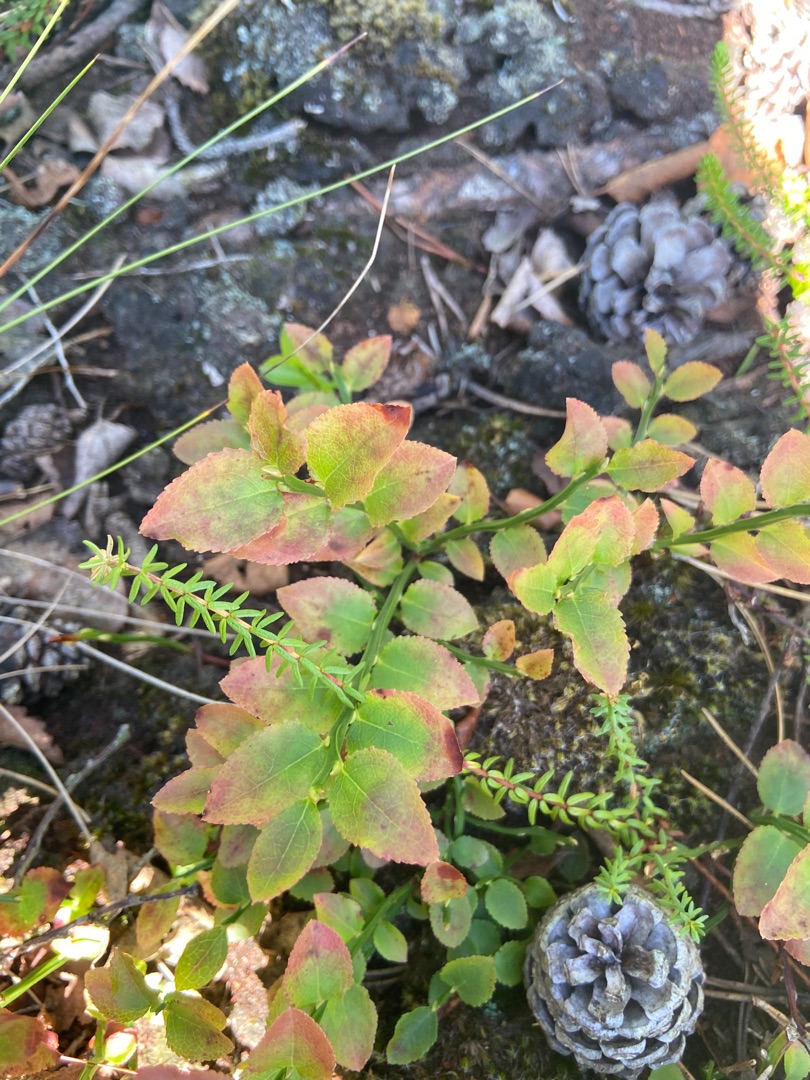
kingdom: Plantae
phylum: Tracheophyta
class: Magnoliopsida
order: Ericales
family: Ericaceae
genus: Vaccinium
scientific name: Vaccinium myrtillus
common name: Blåbær
